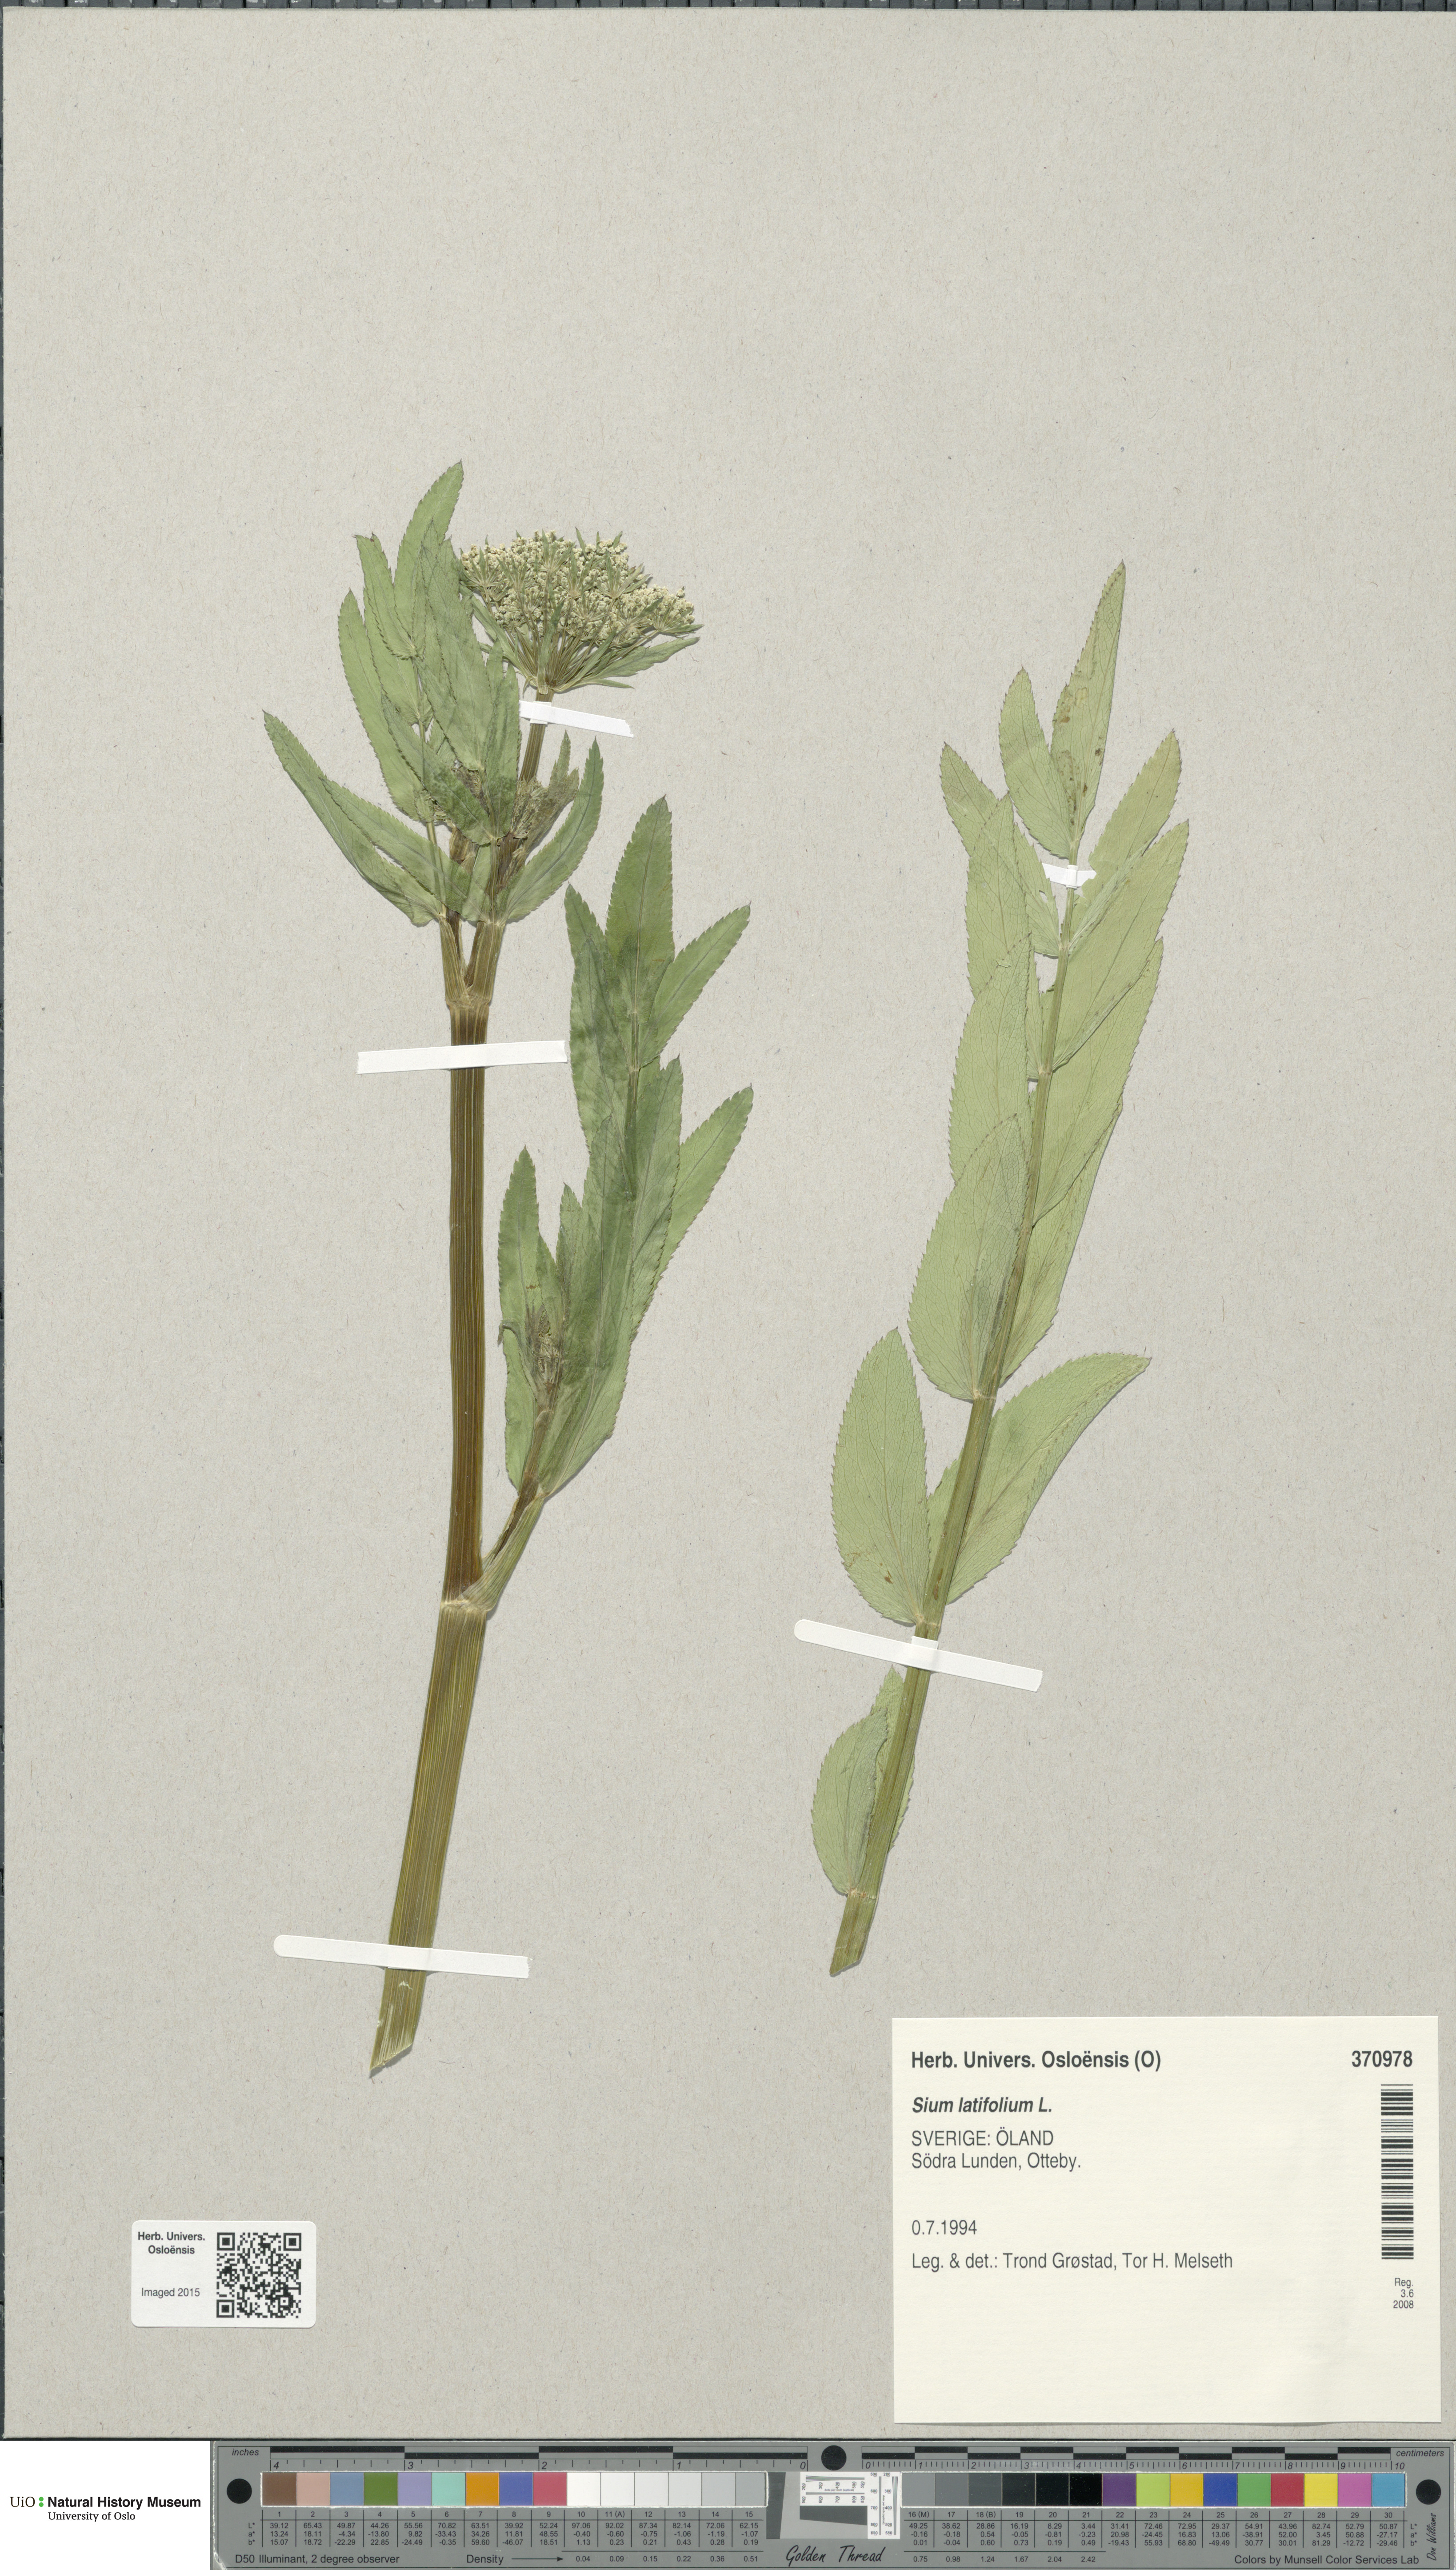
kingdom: Plantae
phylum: Tracheophyta
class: Magnoliopsida
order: Apiales
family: Apiaceae
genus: Sium
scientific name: Sium latifolium
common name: Greater water-parsnip
